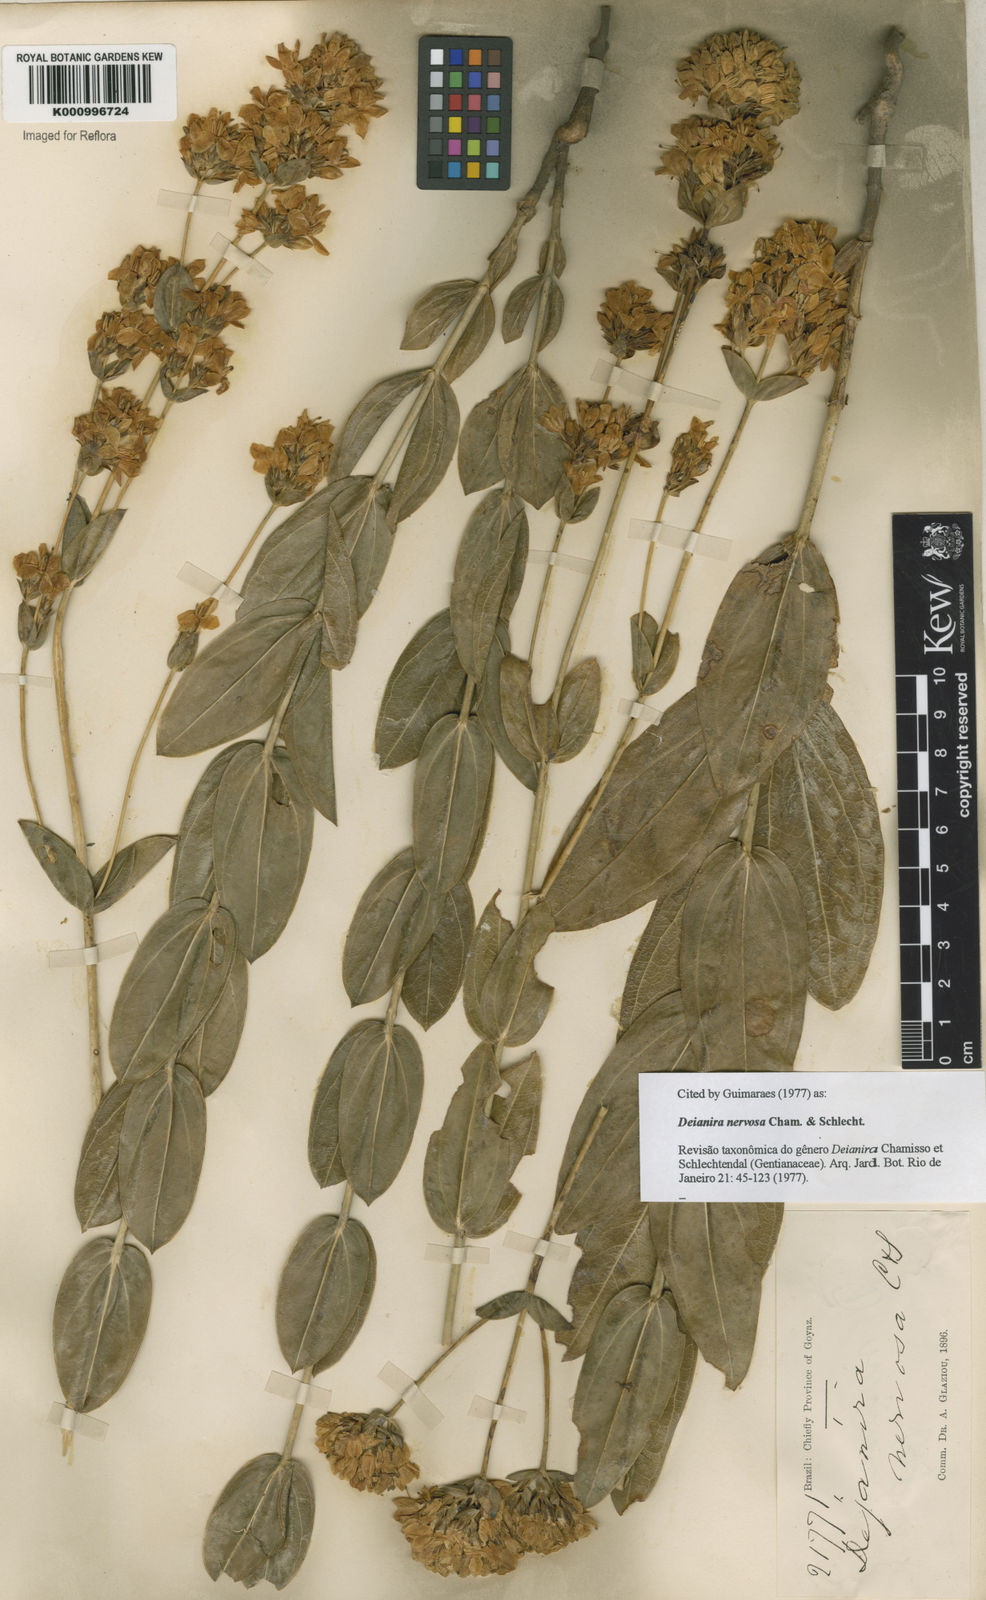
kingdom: Plantae
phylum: Tracheophyta
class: Magnoliopsida
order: Gentianales
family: Gentianaceae
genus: Deianira
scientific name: Deianira nervosa
